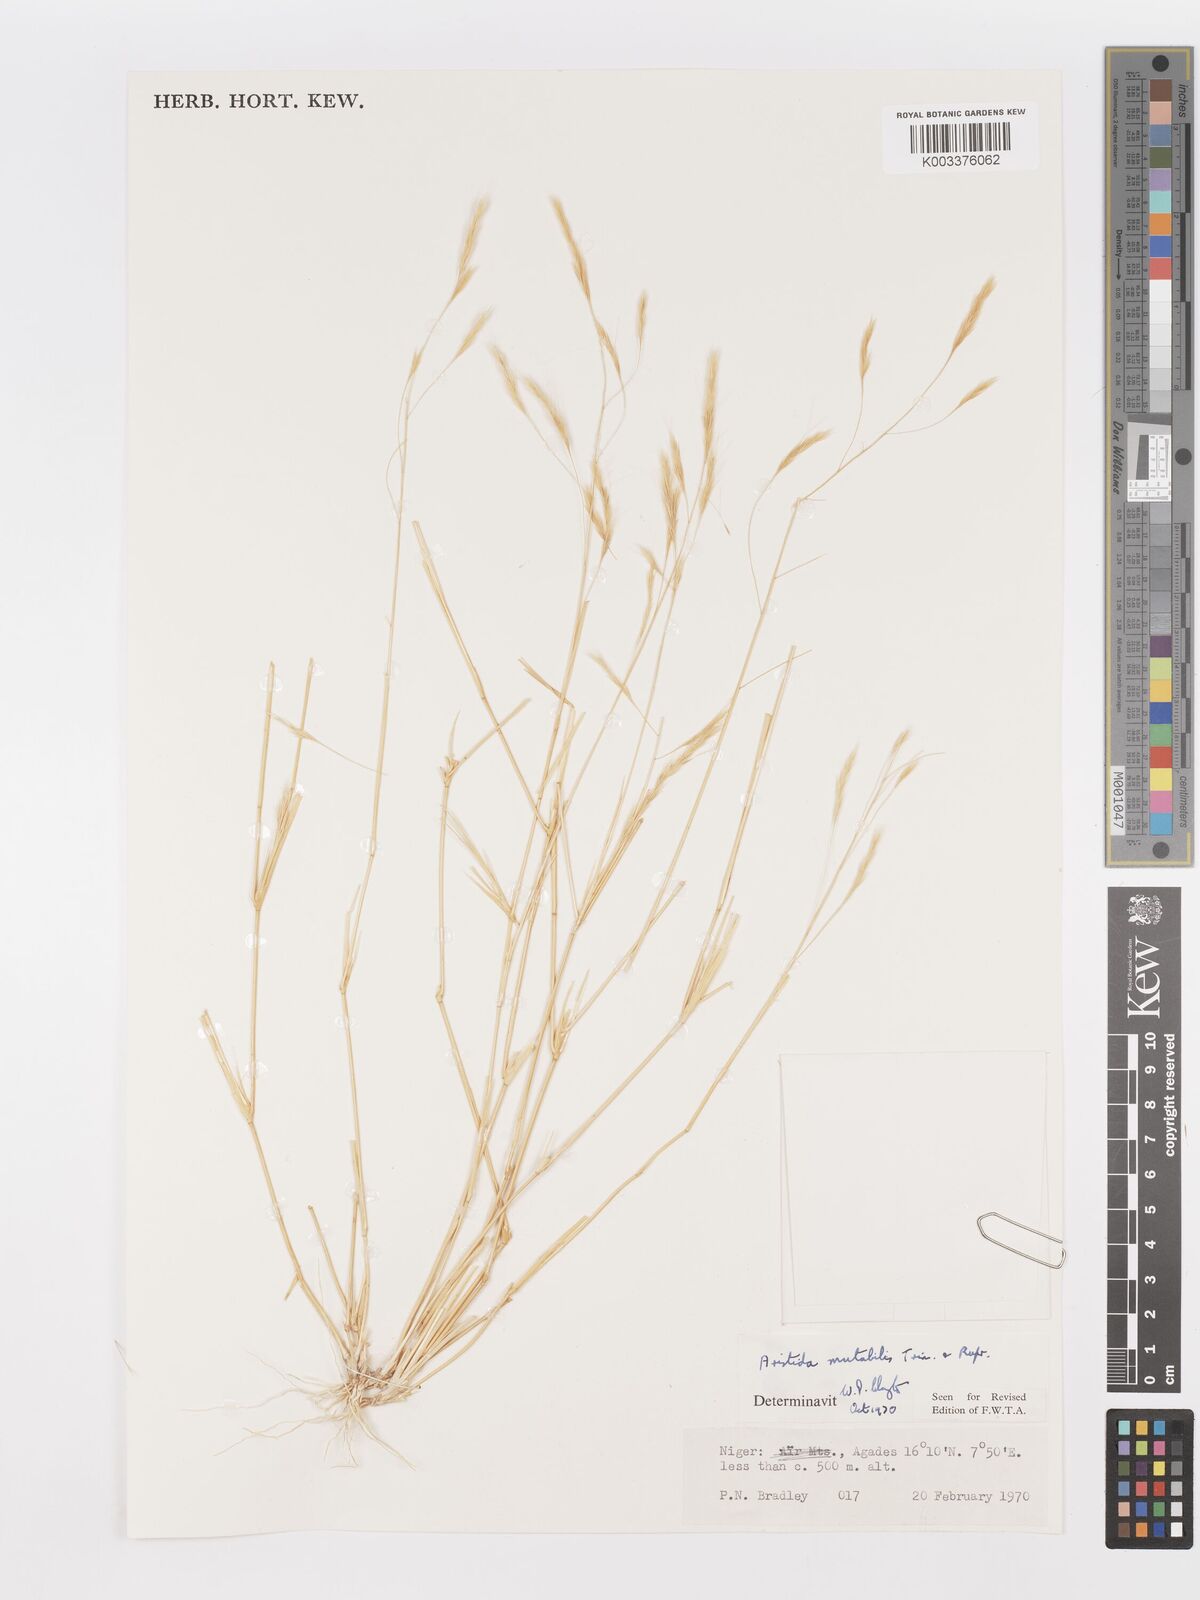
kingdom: Plantae
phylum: Tracheophyta
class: Liliopsida
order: Poales
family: Poaceae
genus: Aristida
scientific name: Aristida mutabilis
